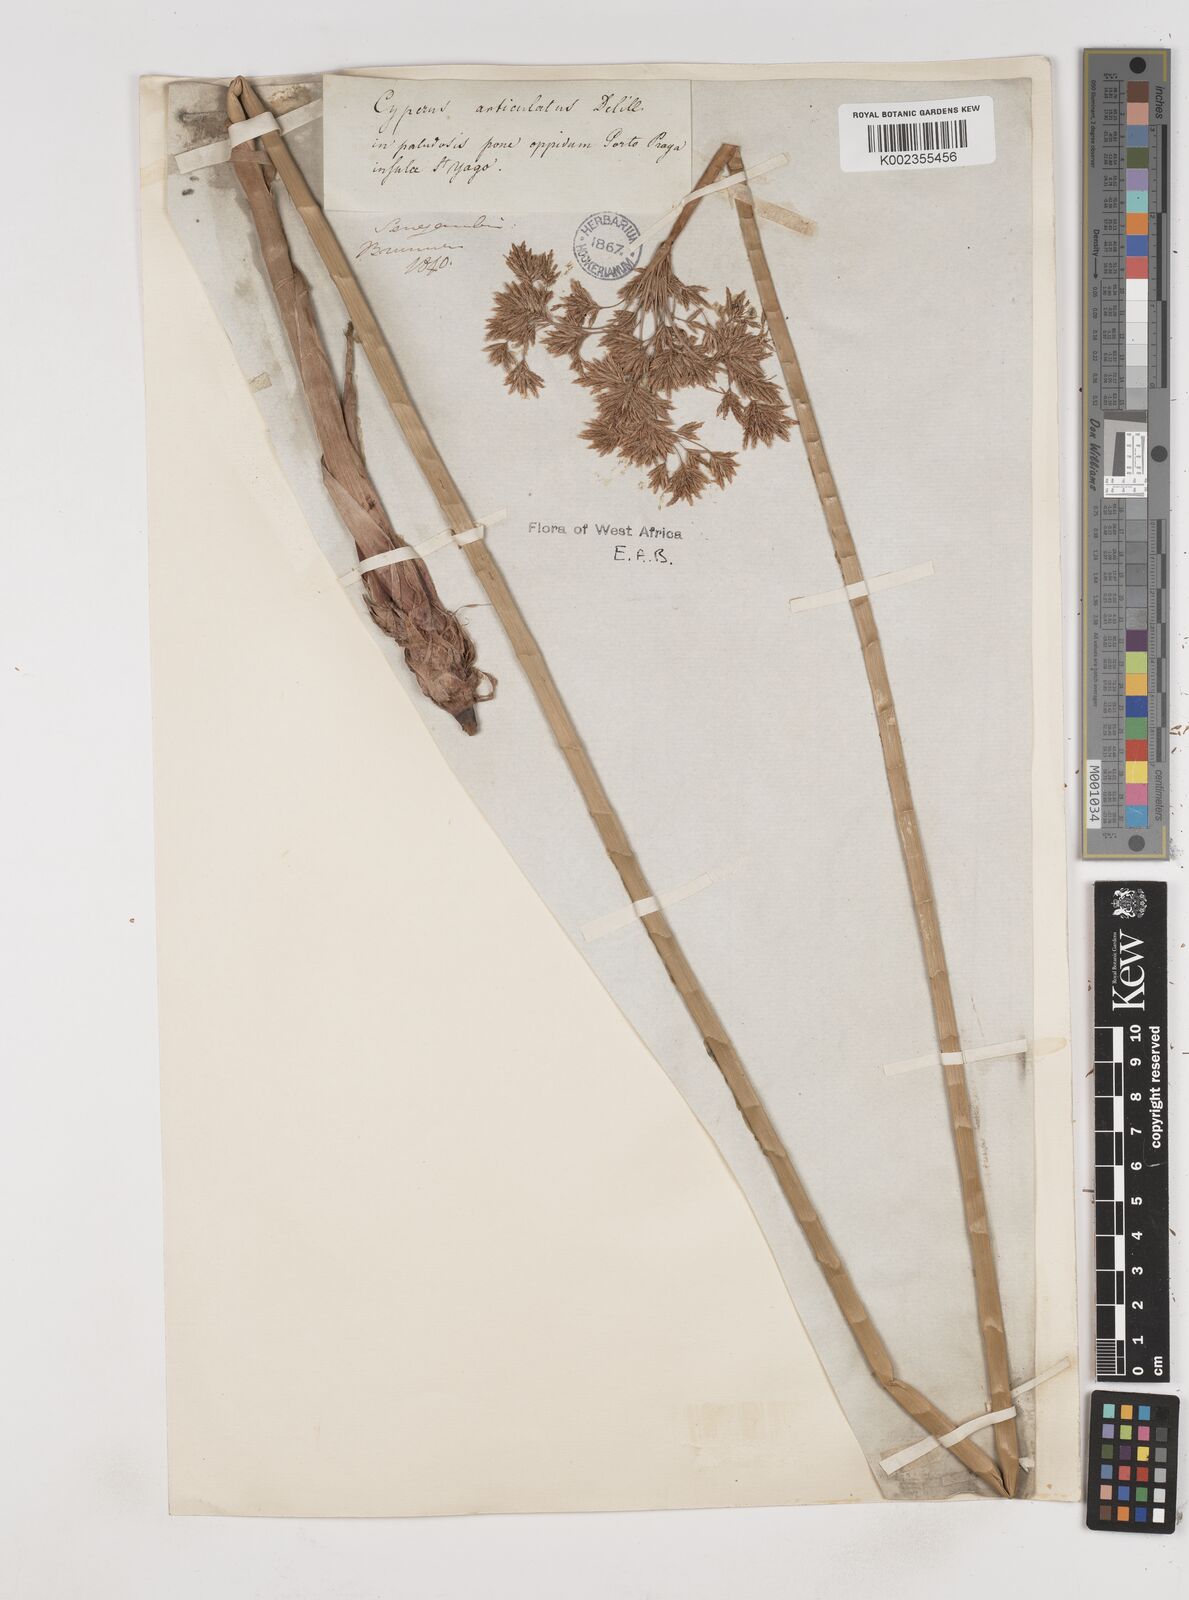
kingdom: Plantae
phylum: Tracheophyta
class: Liliopsida
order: Poales
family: Cyperaceae
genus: Cyperus
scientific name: Cyperus articulatus
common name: Jointed flatsedge
